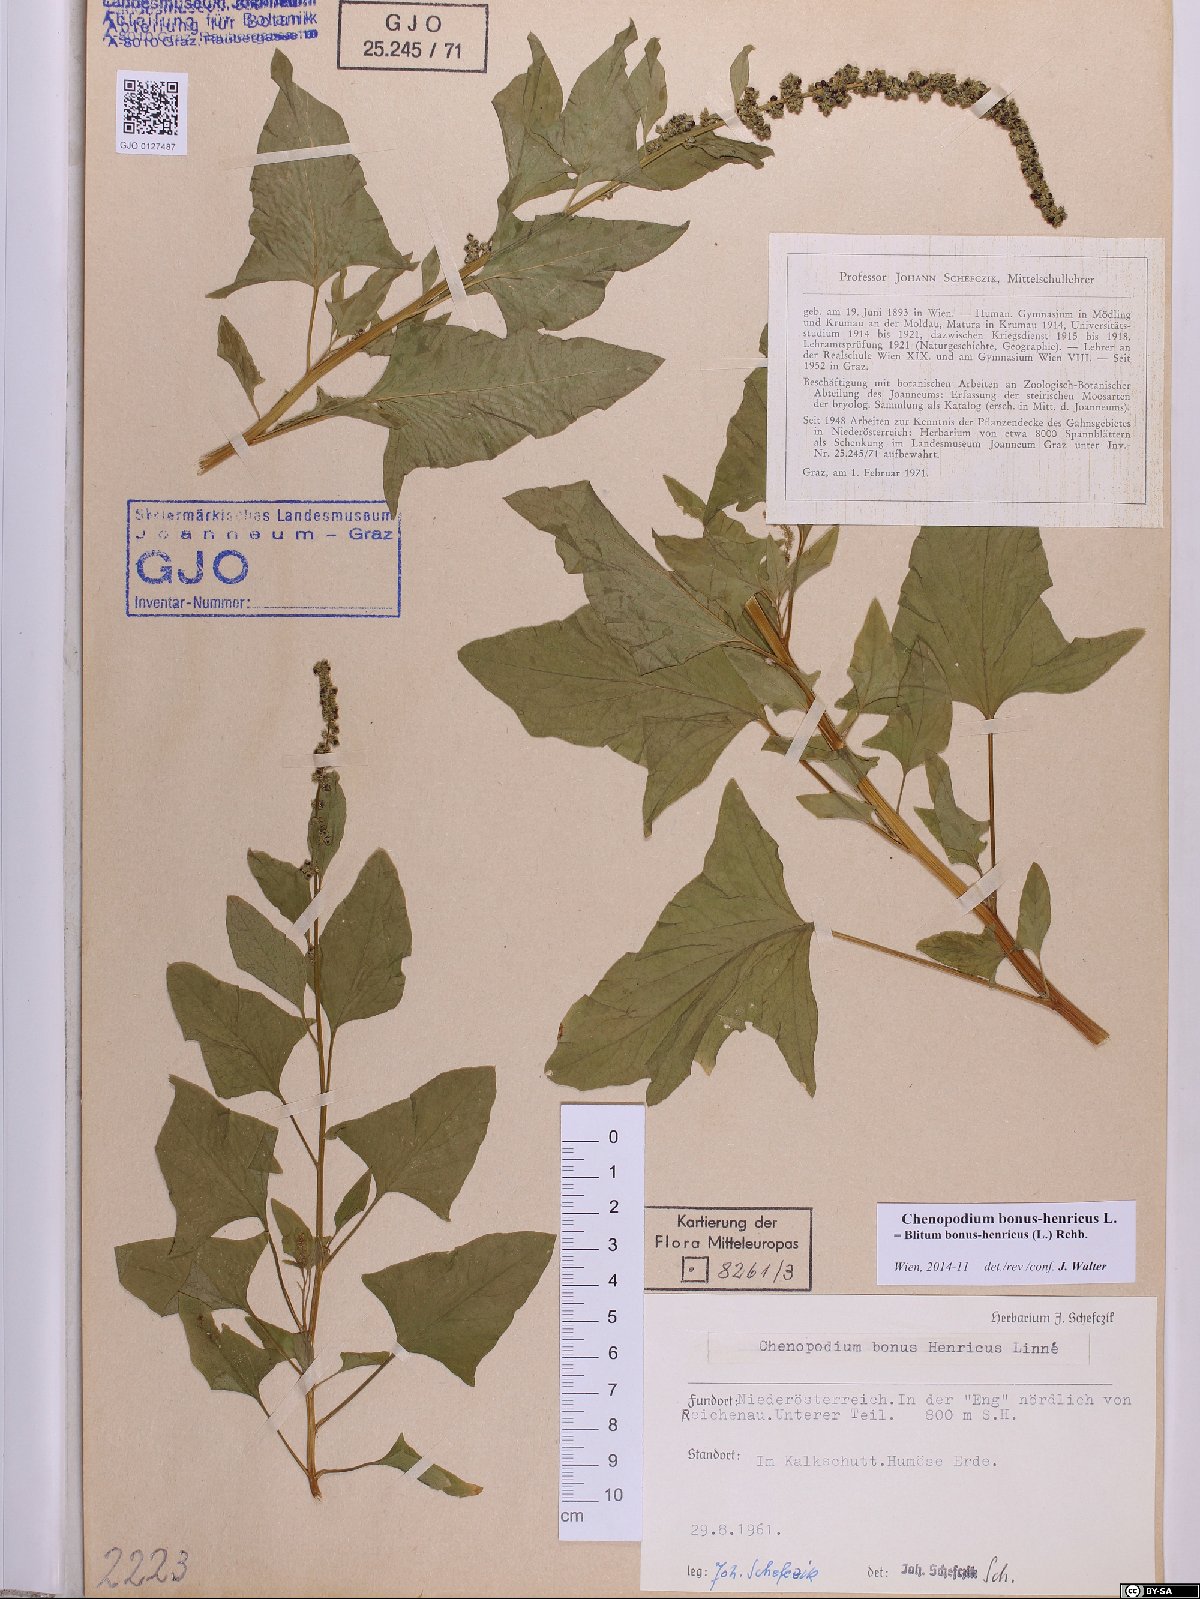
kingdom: Plantae
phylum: Tracheophyta
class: Magnoliopsida
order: Caryophyllales
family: Amaranthaceae
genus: Blitum
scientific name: Blitum bonus-henricus
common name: Good king henry
